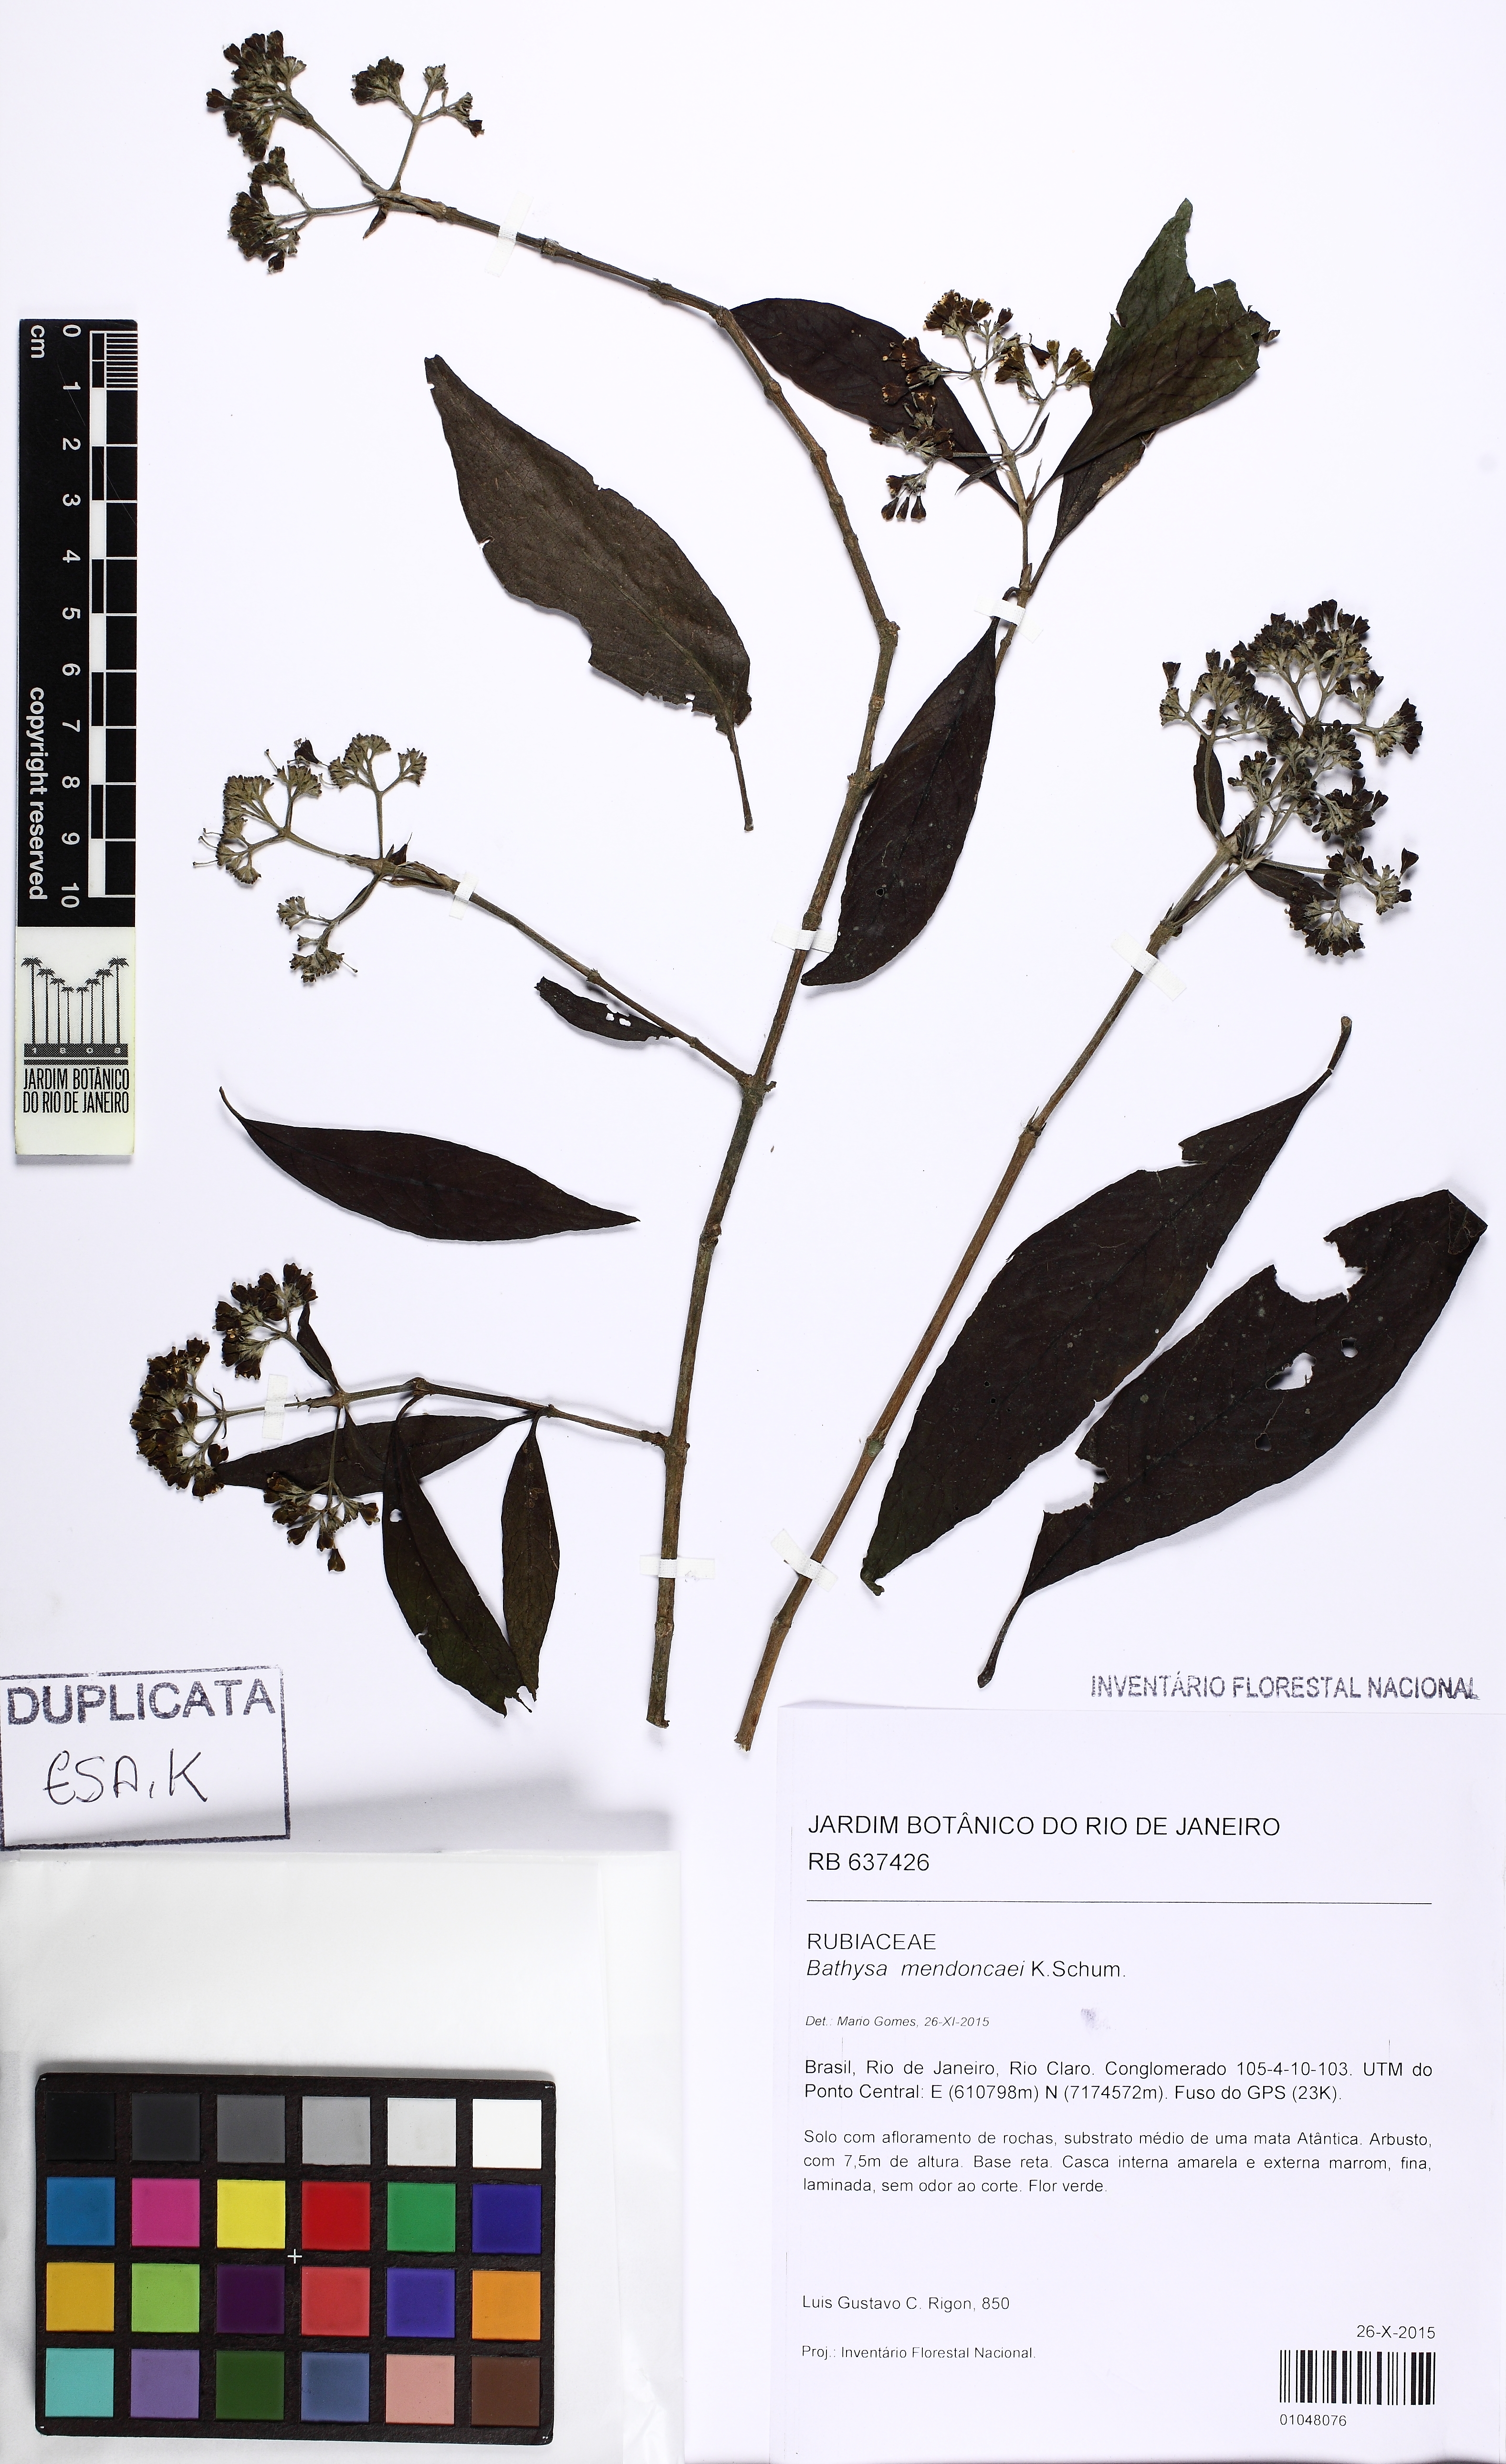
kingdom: Plantae
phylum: Tracheophyta
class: Magnoliopsida
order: Gentianales
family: Rubiaceae
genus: Bathysa
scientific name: Bathysa mendoncaei
